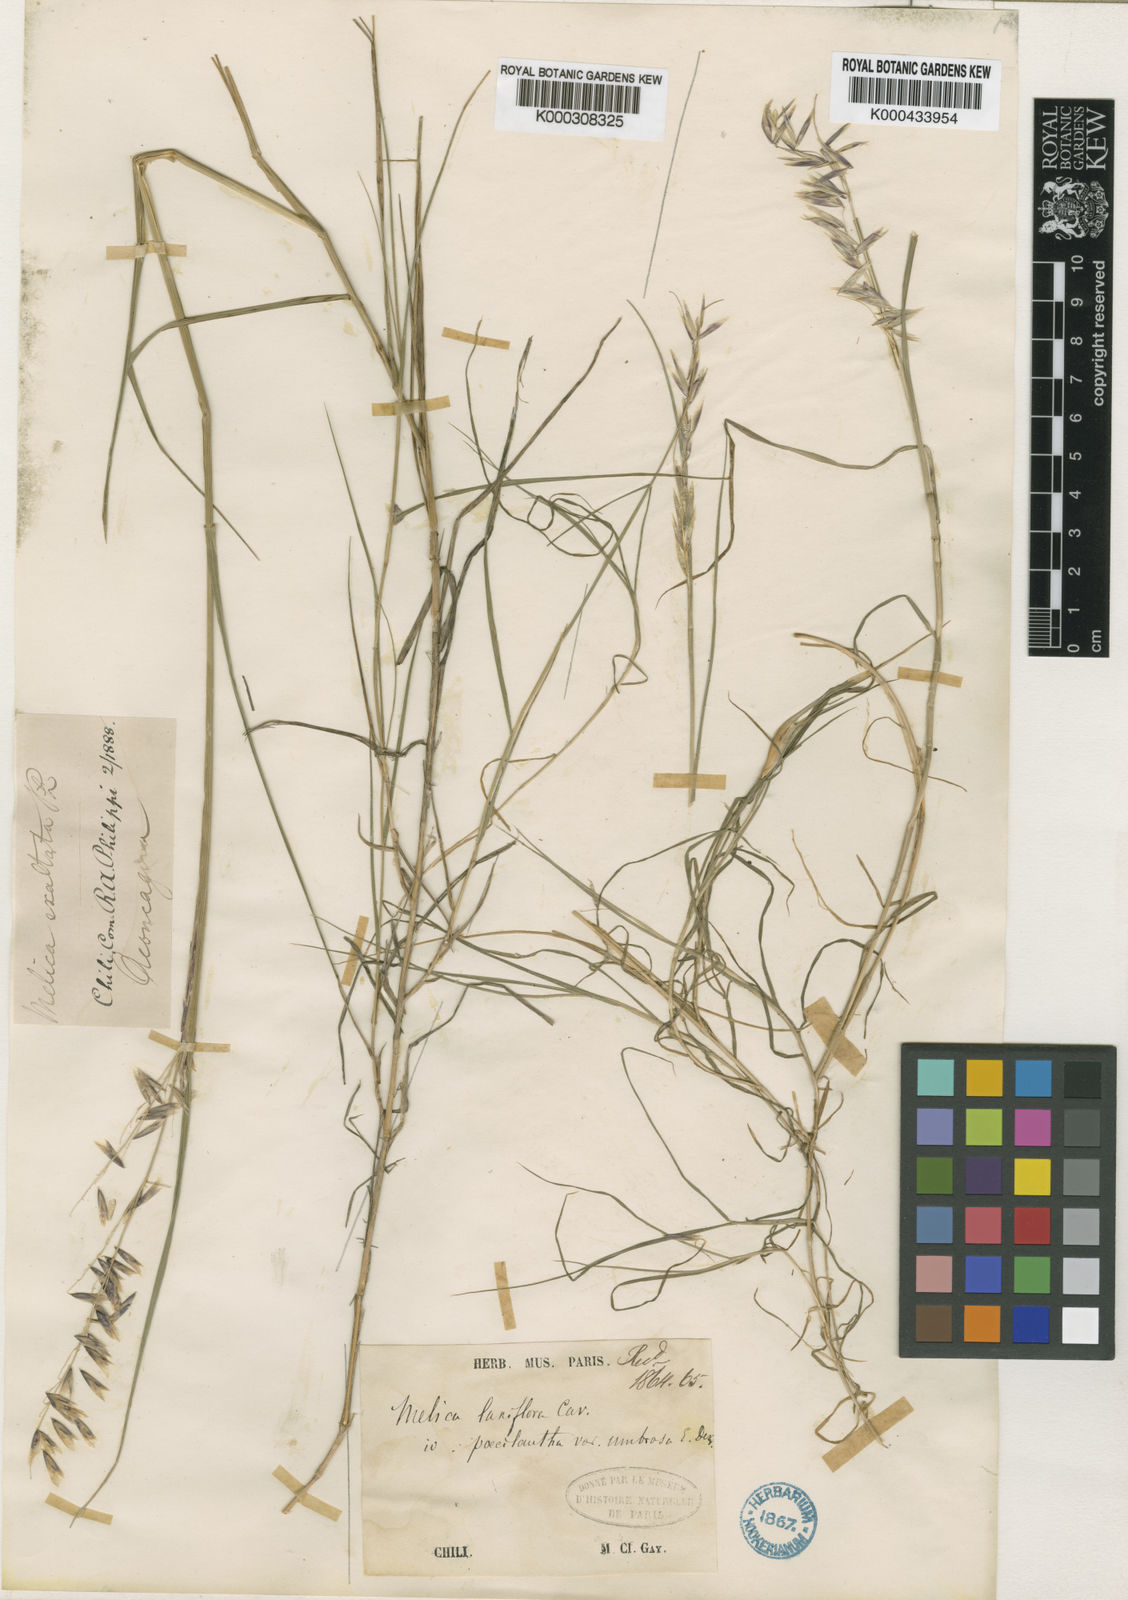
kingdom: Plantae
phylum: Tracheophyta
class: Liliopsida
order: Poales
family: Poaceae
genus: Melica
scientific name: Melica longiflora
